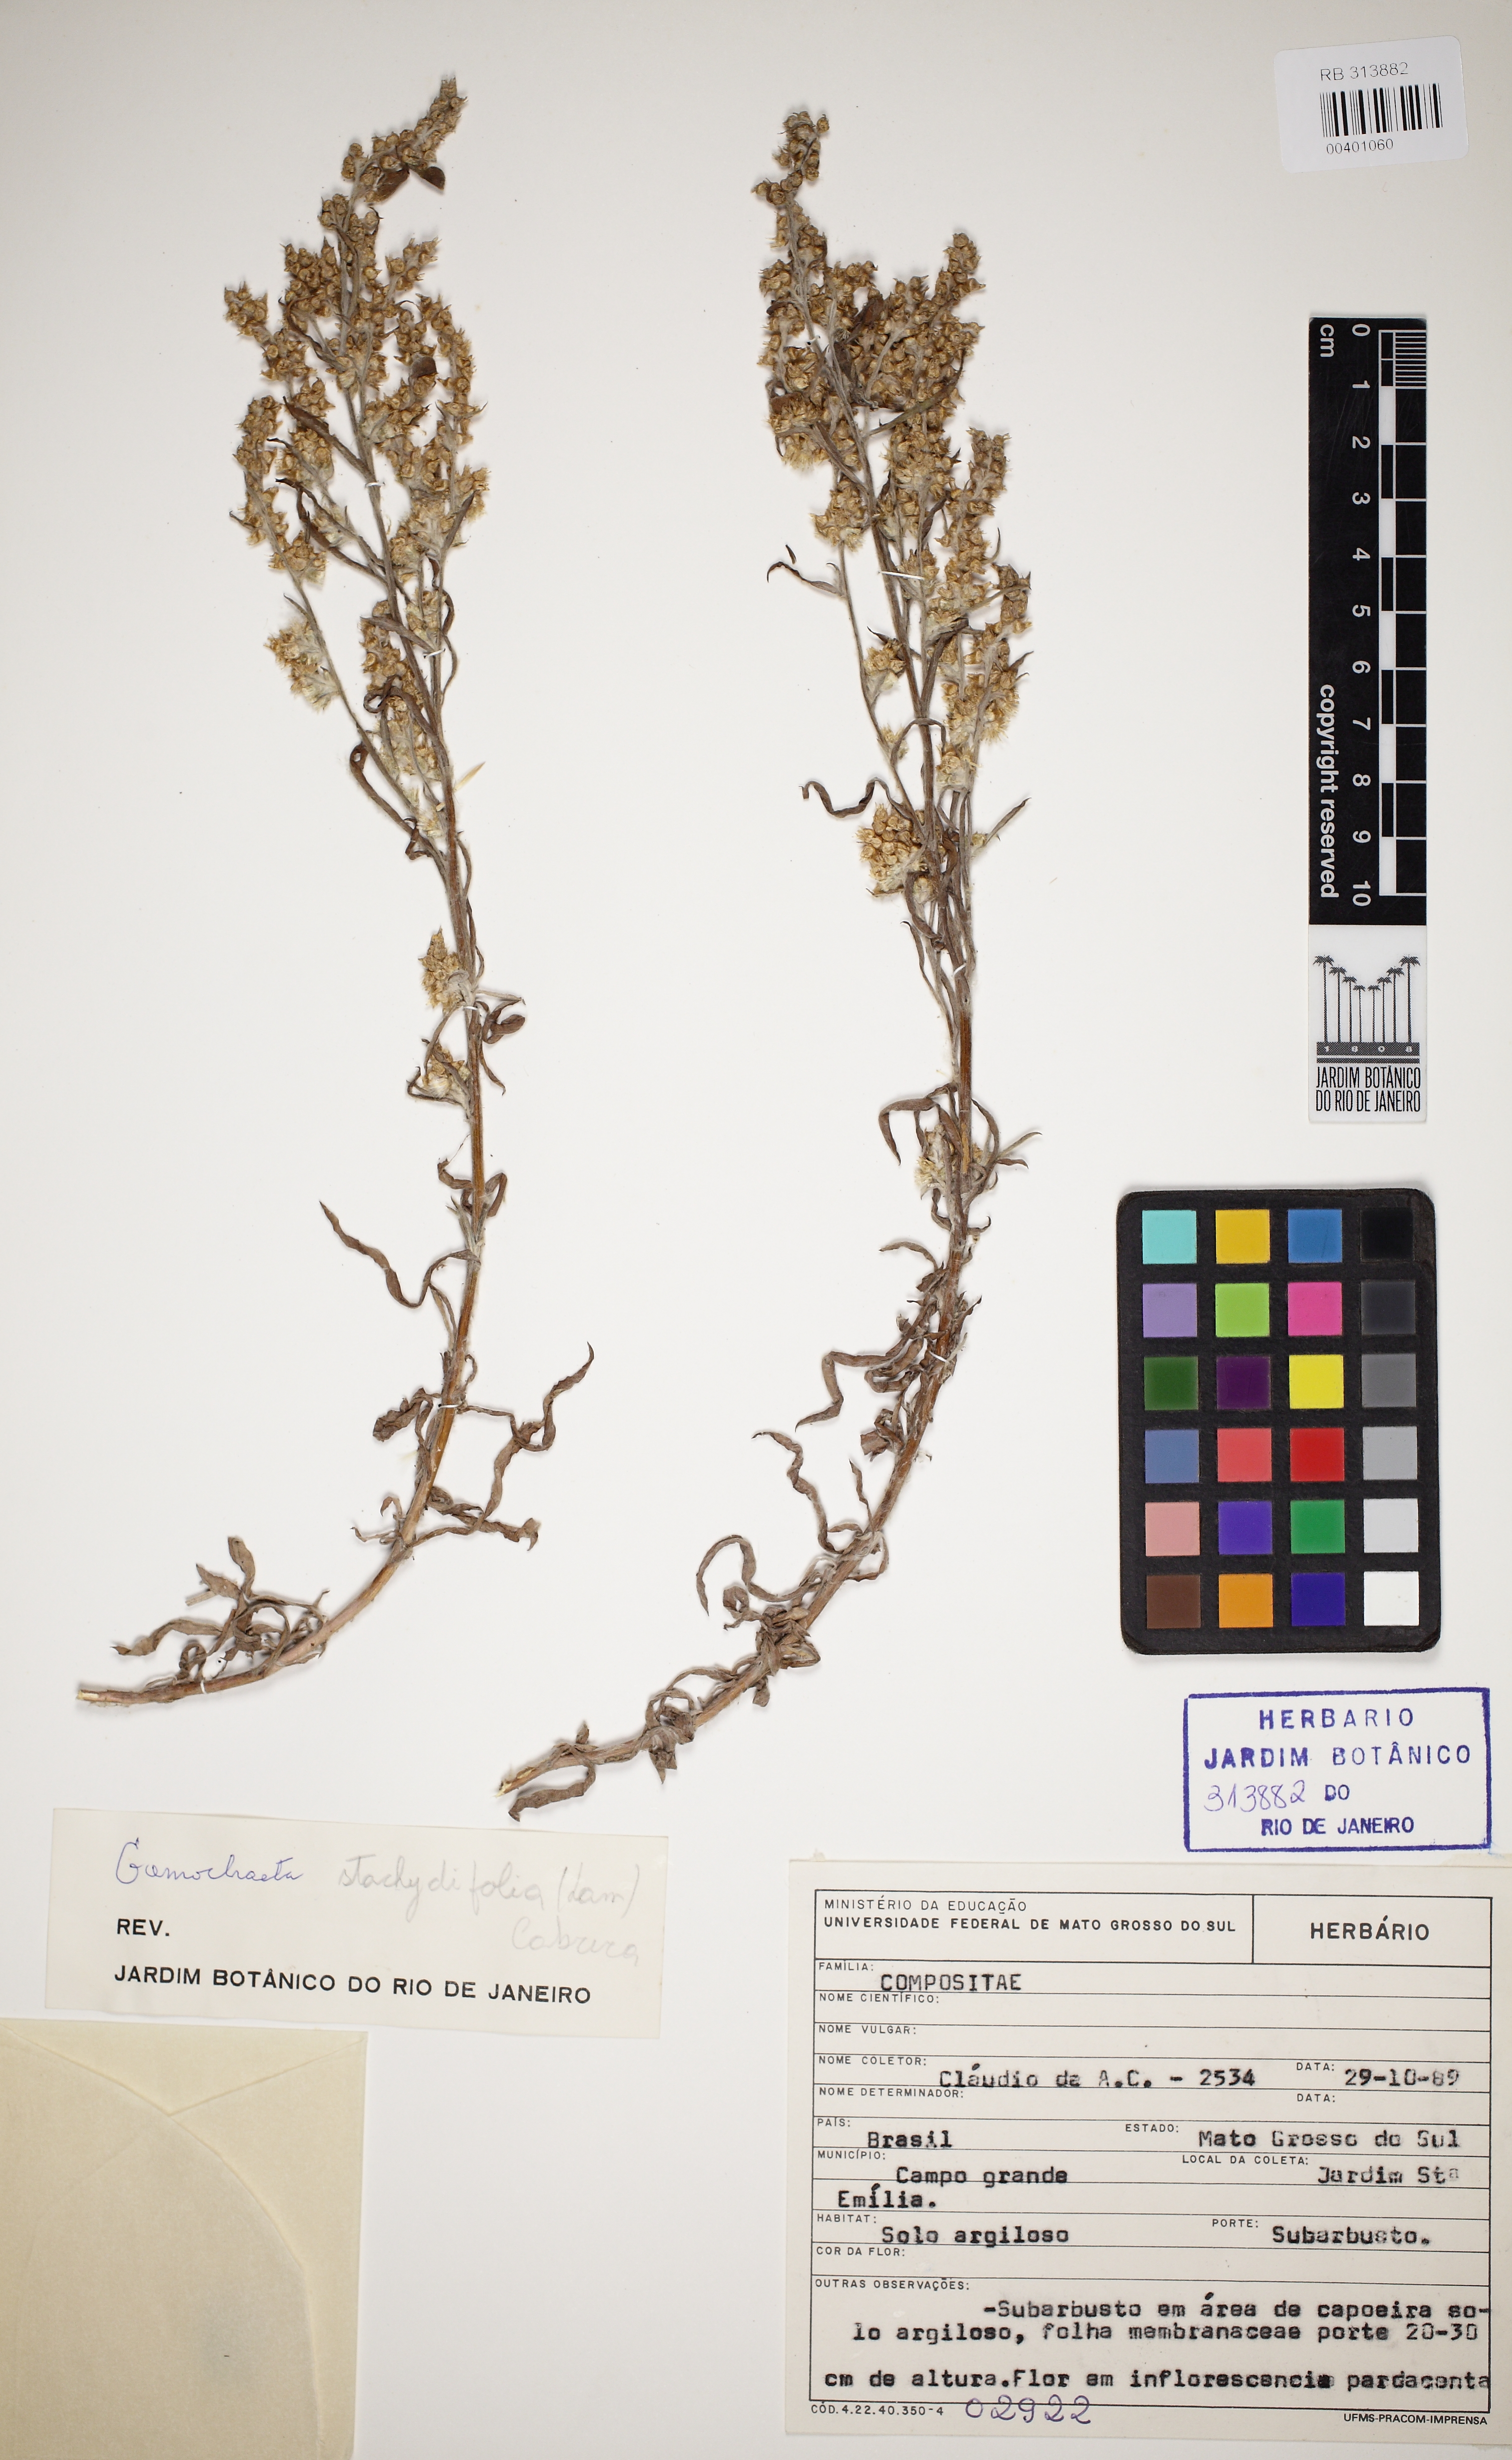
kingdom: Plantae
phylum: Tracheophyta
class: Magnoliopsida
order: Asterales
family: Asteraceae
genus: Gamochaeta
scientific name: Gamochaeta stachidifolia
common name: Sunflower
